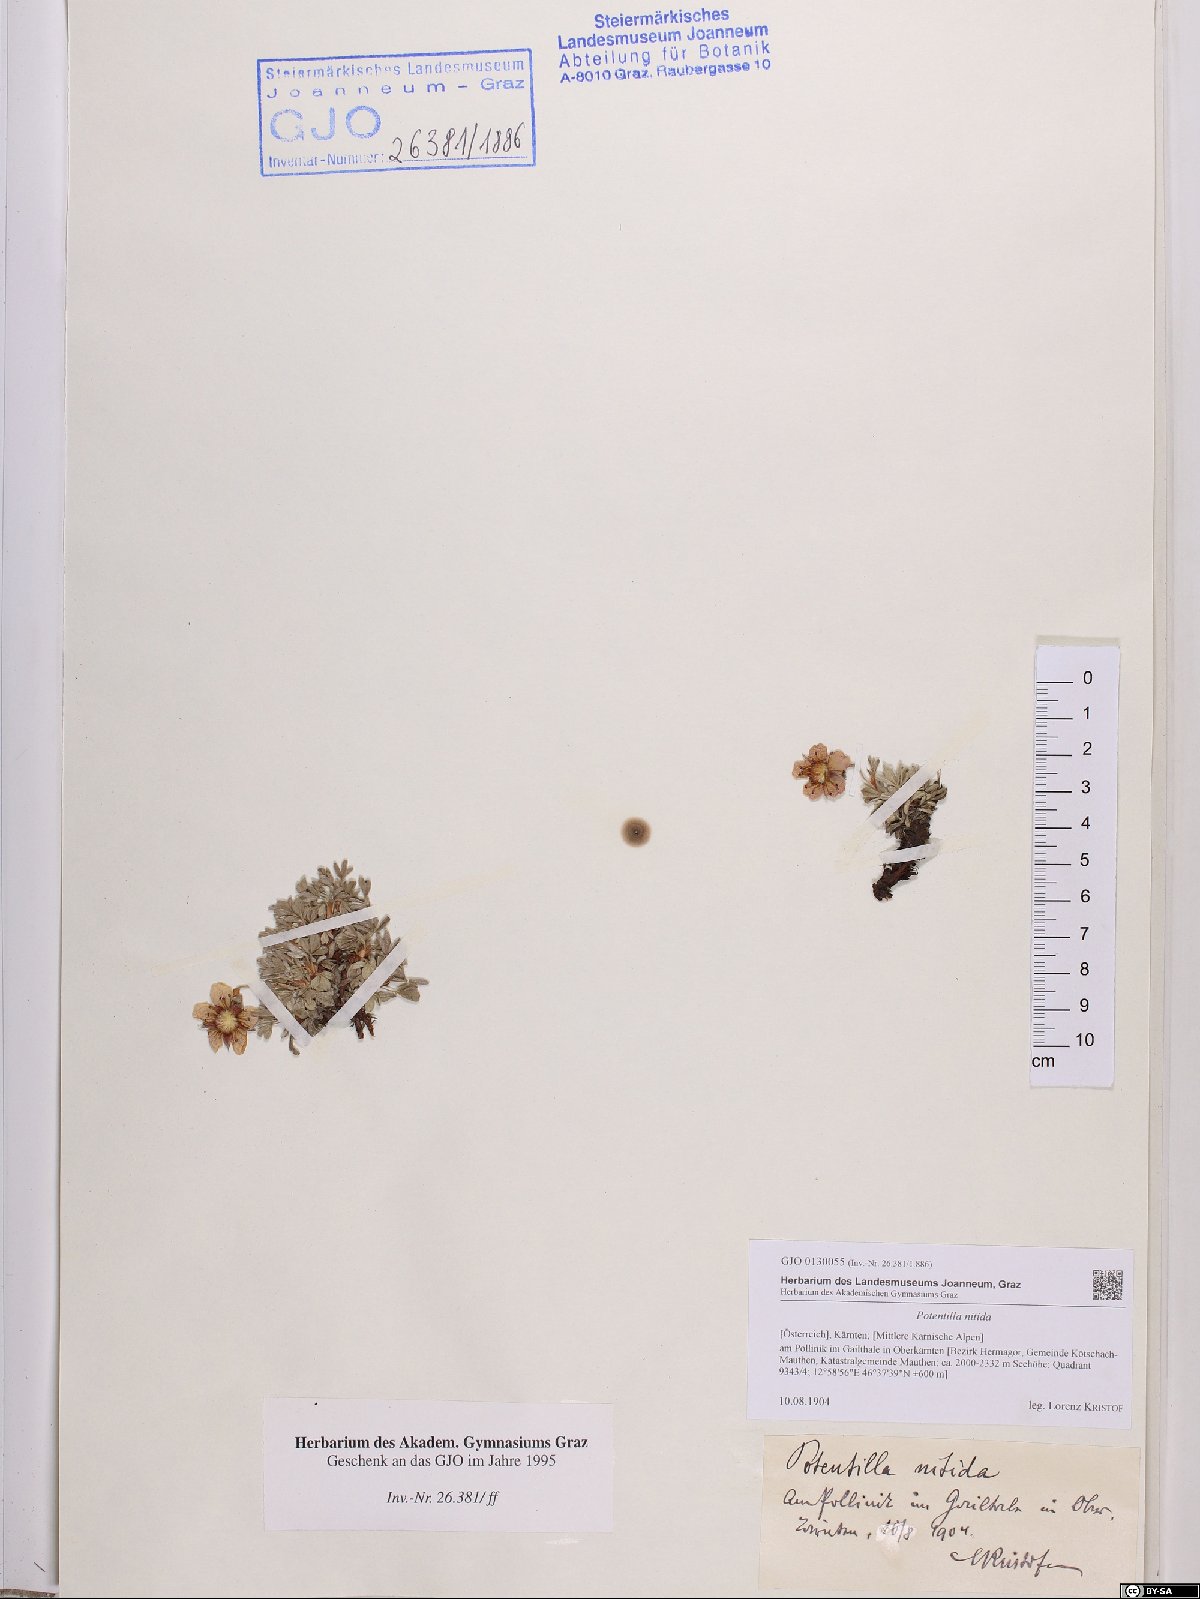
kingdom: Plantae
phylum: Tracheophyta
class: Magnoliopsida
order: Rosales
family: Rosaceae
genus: Potentilla
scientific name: Potentilla nitida
